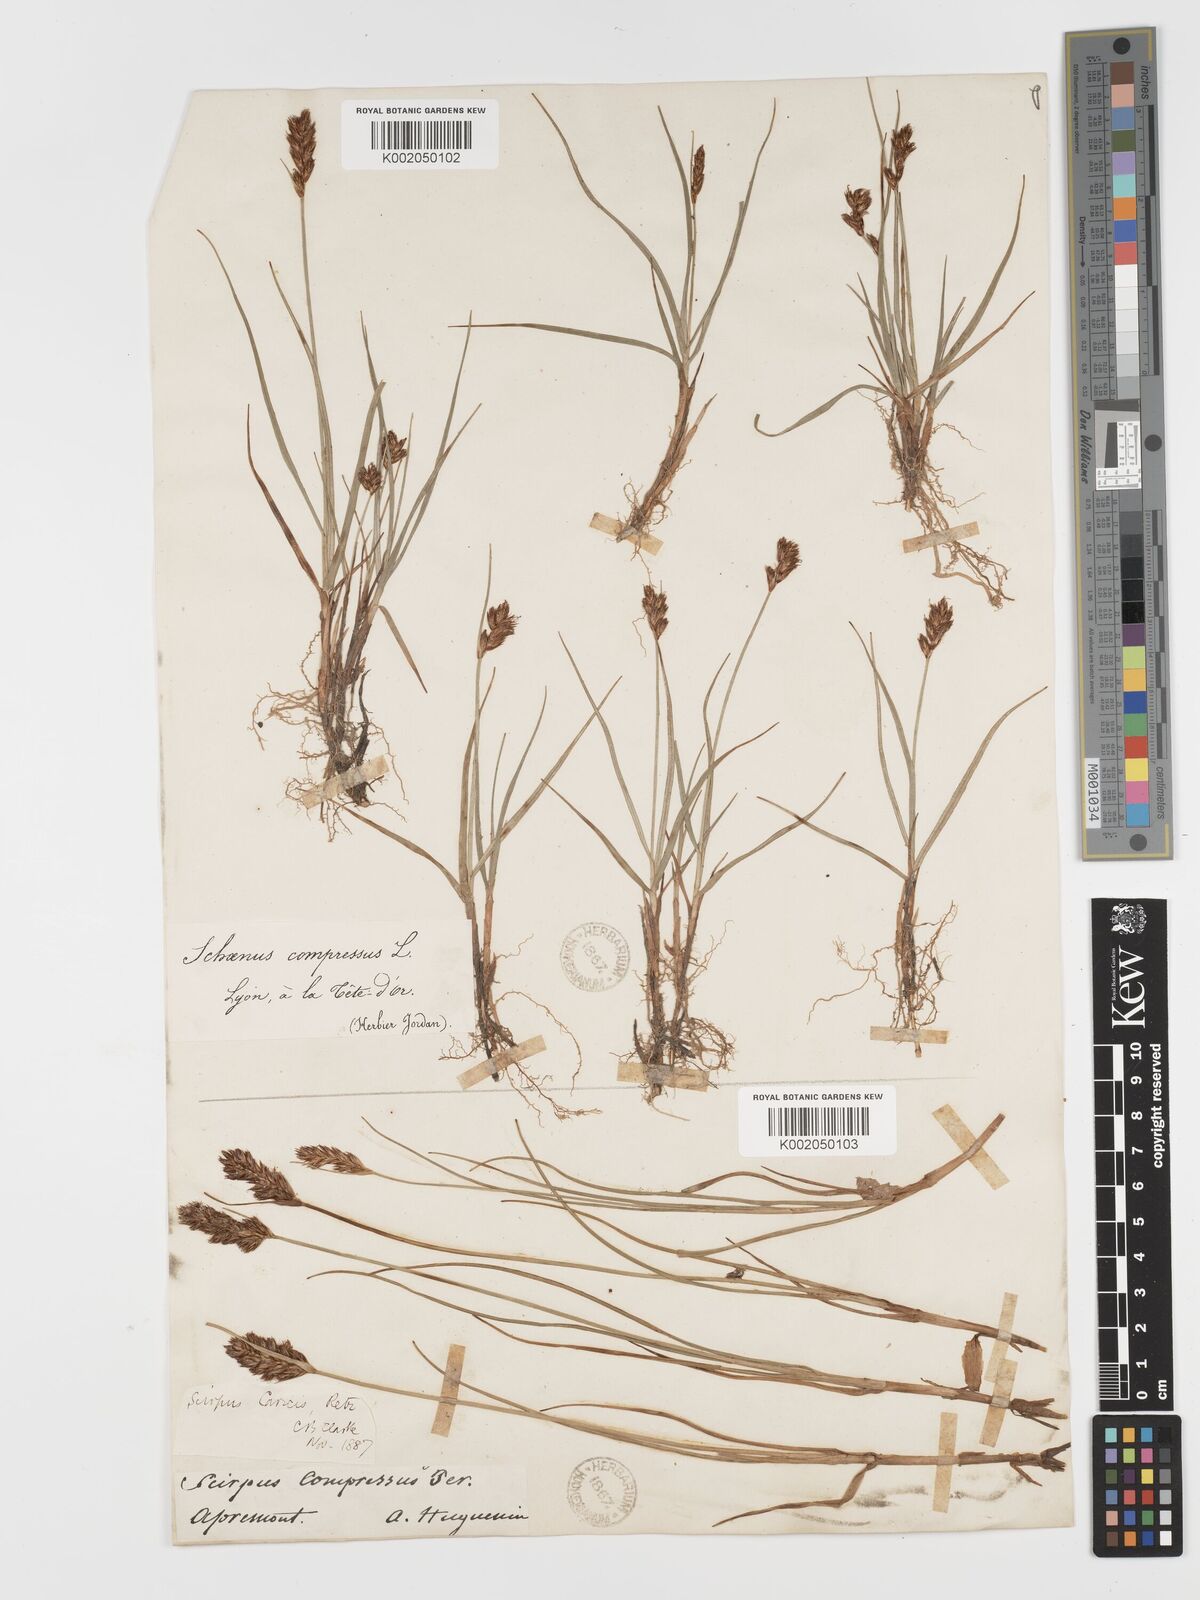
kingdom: Plantae
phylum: Tracheophyta
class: Liliopsida
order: Poales
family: Cyperaceae
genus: Blysmus
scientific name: Blysmus compressus
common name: Flat-sedge
